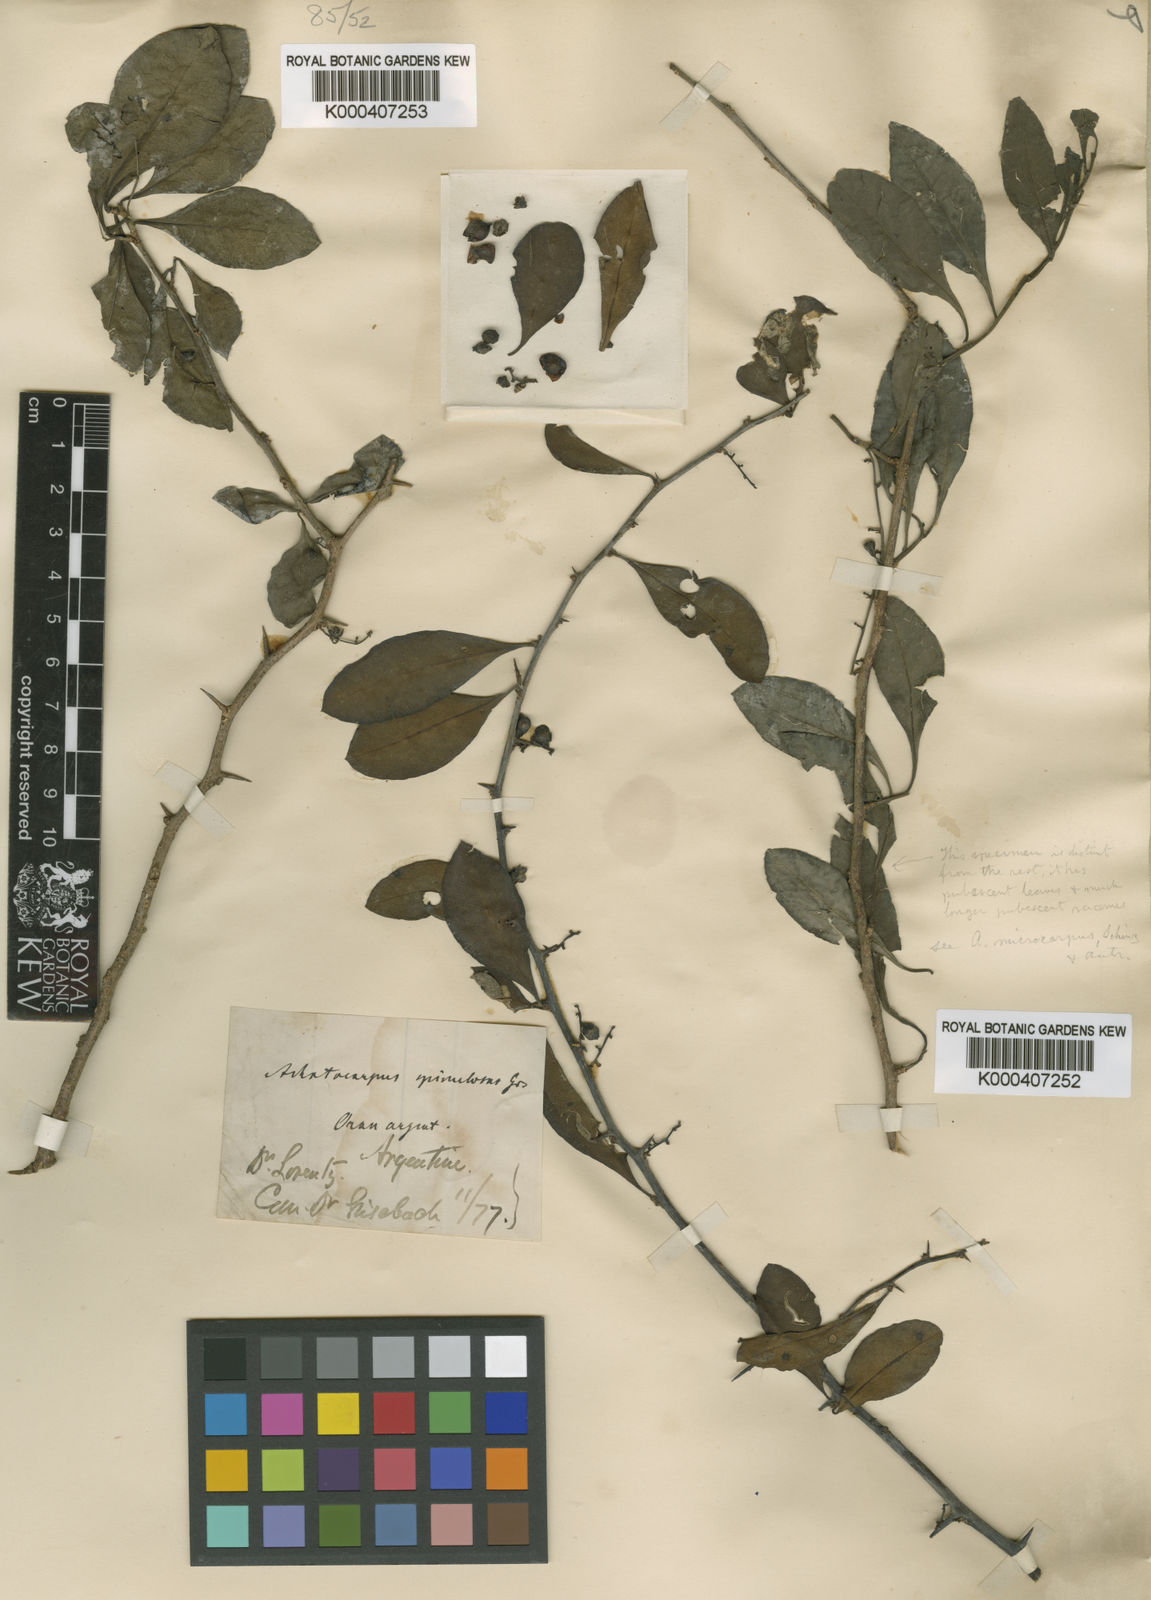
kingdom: Plantae
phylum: Tracheophyta
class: Magnoliopsida
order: Caryophyllales
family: Achatocarpaceae
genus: Achatocarpus
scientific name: Achatocarpus praecox
